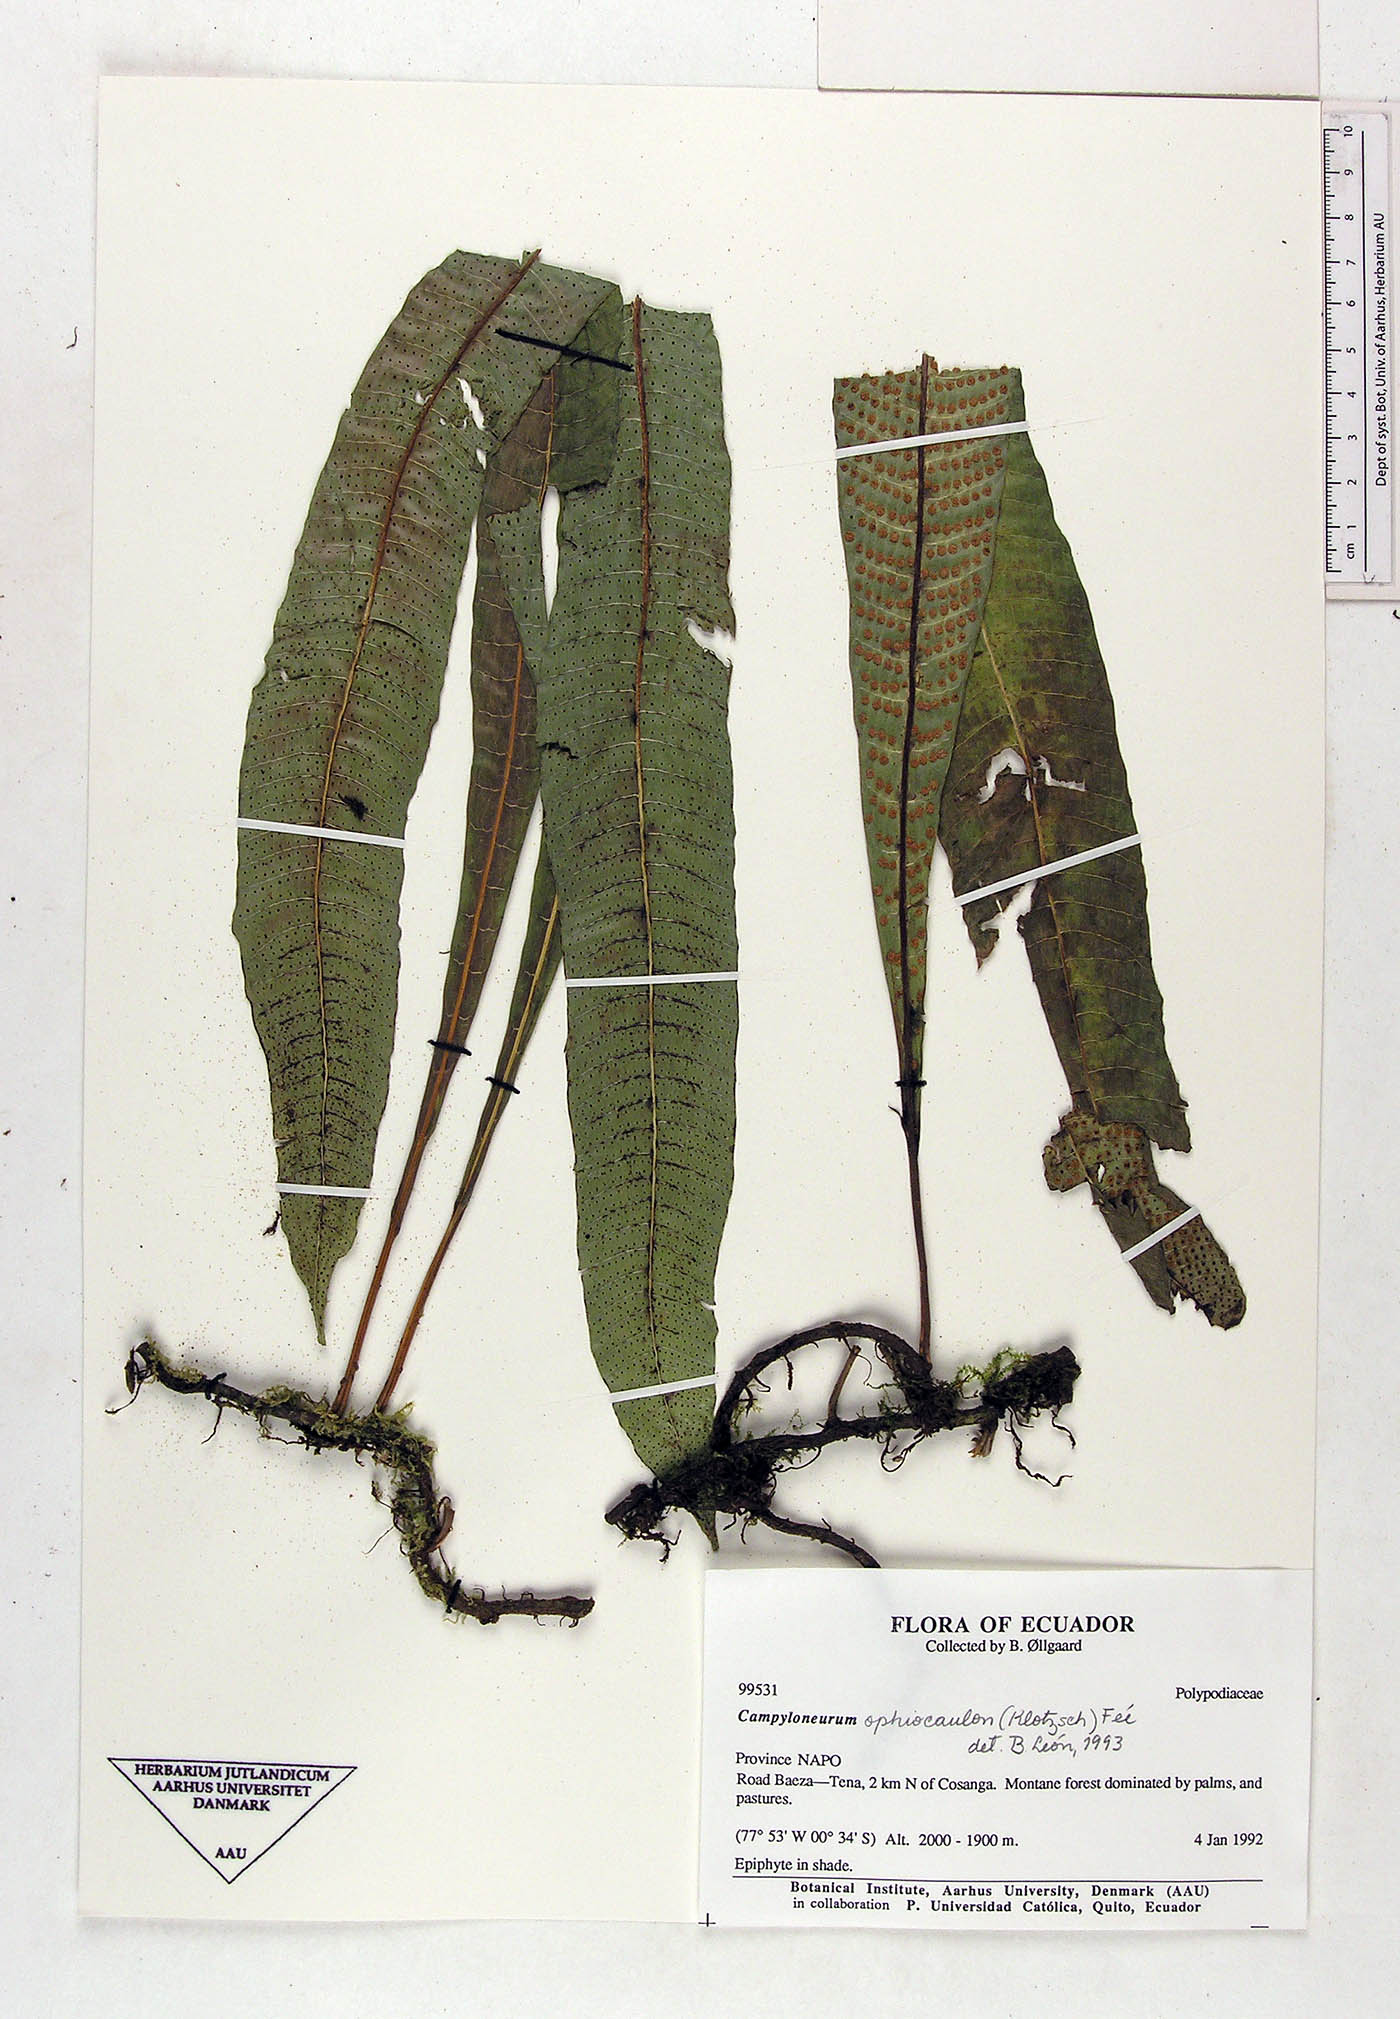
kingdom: Plantae
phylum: Tracheophyta
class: Polypodiopsida
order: Polypodiales
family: Polypodiaceae
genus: Campyloneurum
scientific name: Campyloneurum ophiocaulon
